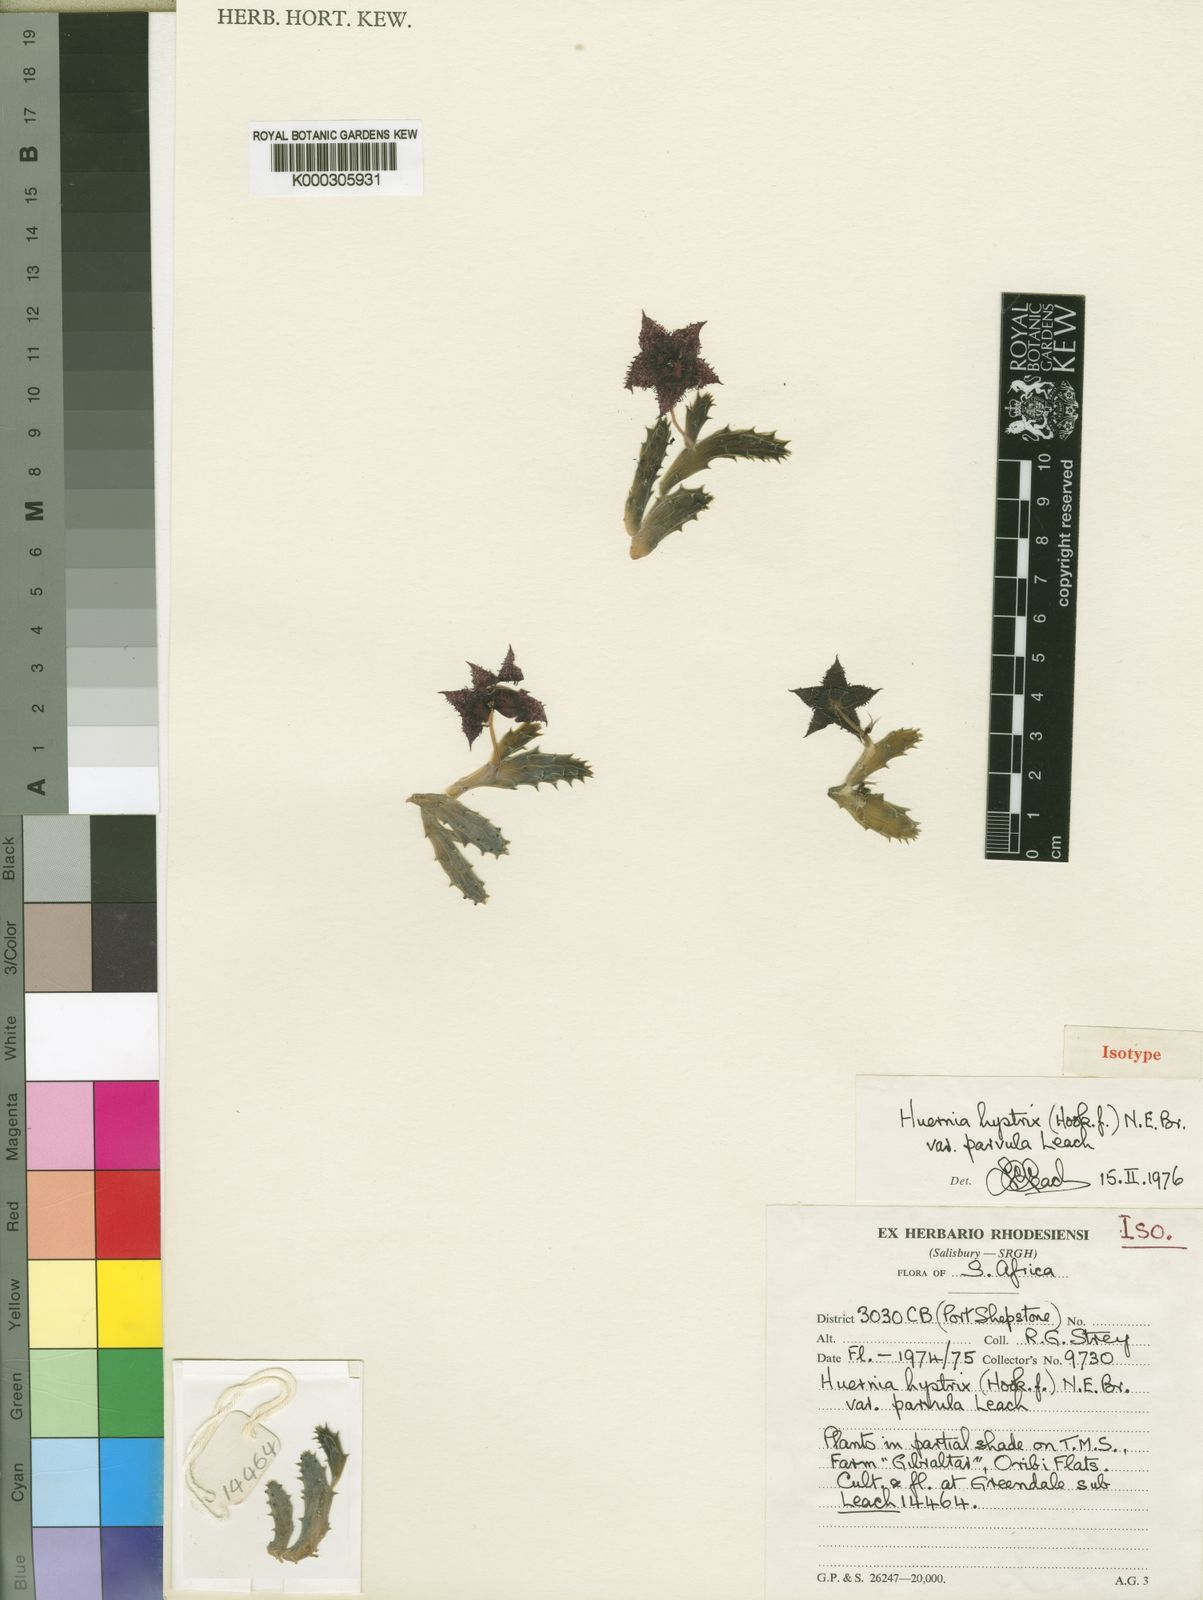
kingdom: Plantae
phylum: Tracheophyta
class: Magnoliopsida
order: Gentianales
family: Apocynaceae
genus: Ceropegia
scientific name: Ceropegia hystrix
